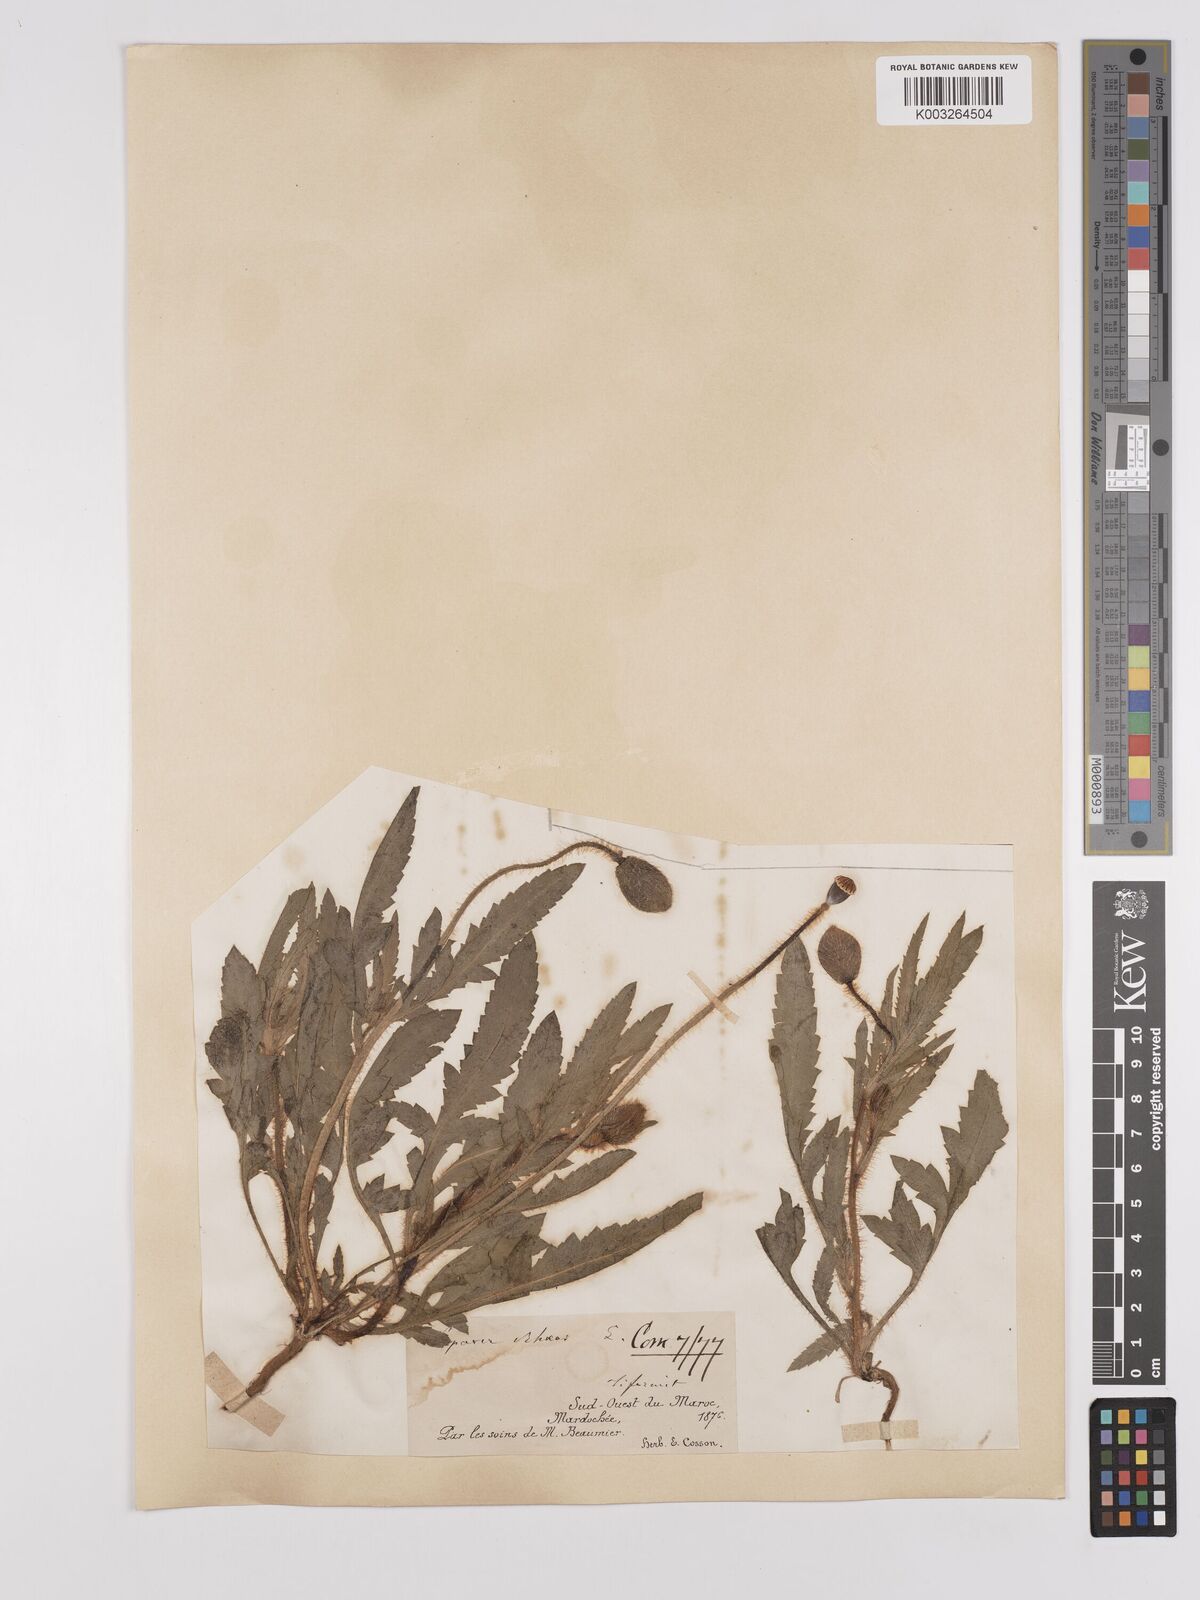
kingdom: Plantae
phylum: Tracheophyta
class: Magnoliopsida
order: Ranunculales
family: Papaveraceae
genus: Papaver
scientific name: Papaver rhoeas
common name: Corn poppy
